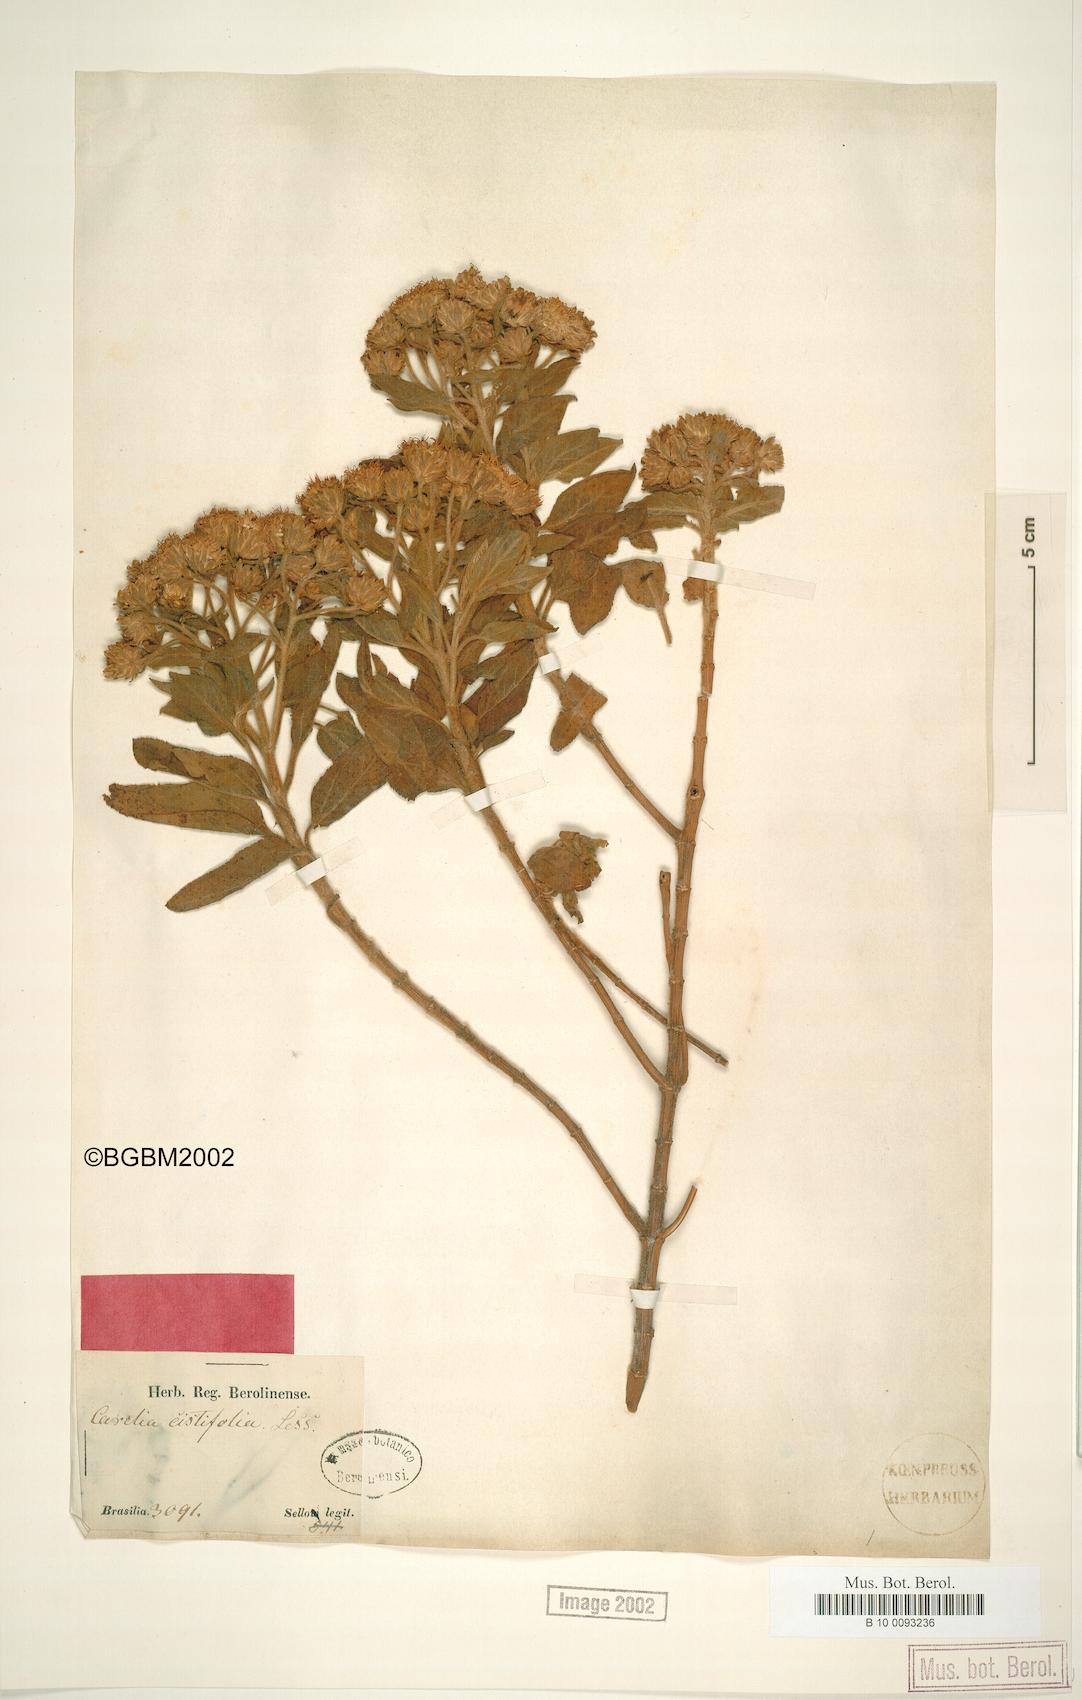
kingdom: Plantae
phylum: Tracheophyta
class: Magnoliopsida
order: Asterales
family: Asteraceae
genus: Radlkoferotoma
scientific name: Radlkoferotoma cistifolium
